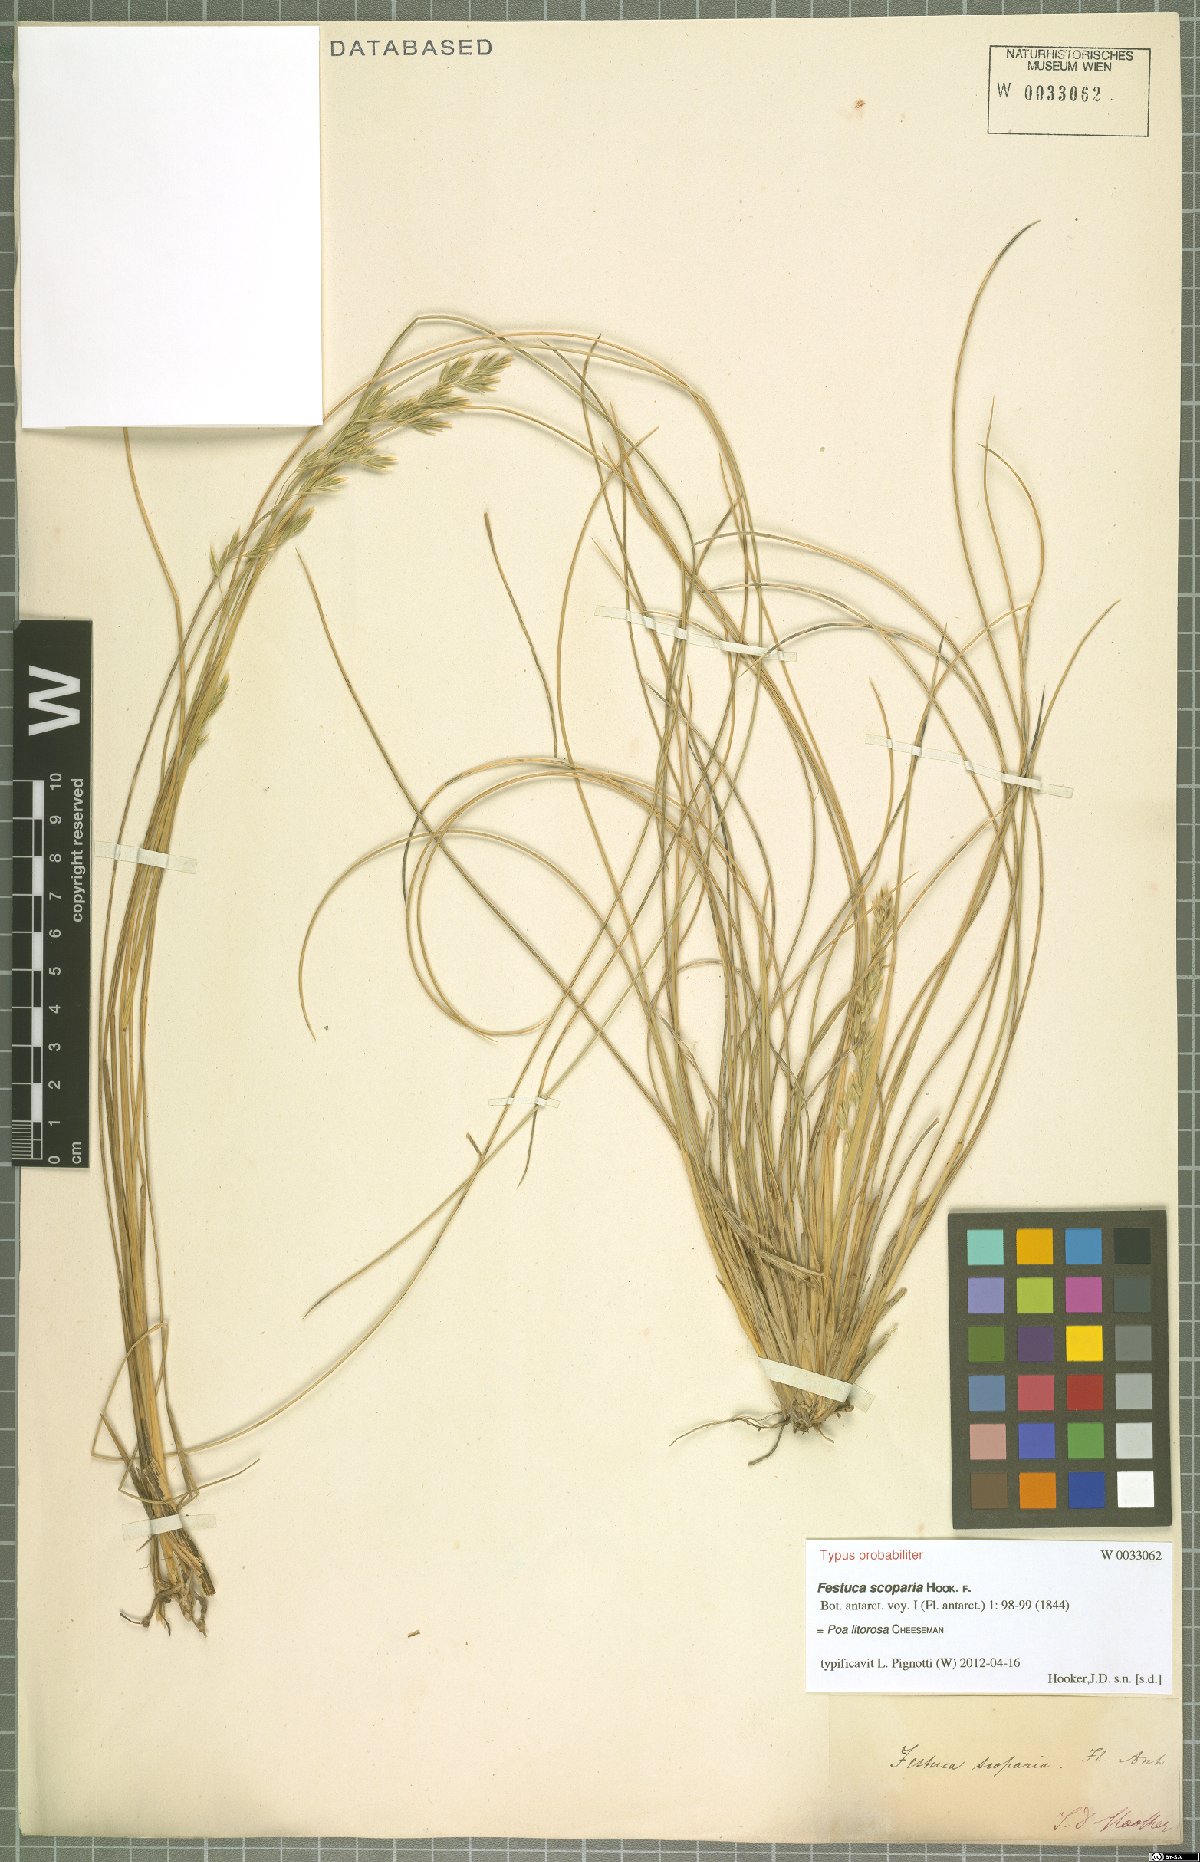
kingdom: Plantae
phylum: Tracheophyta
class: Liliopsida
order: Poales
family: Poaceae
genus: Poa
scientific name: Poa litorosa
